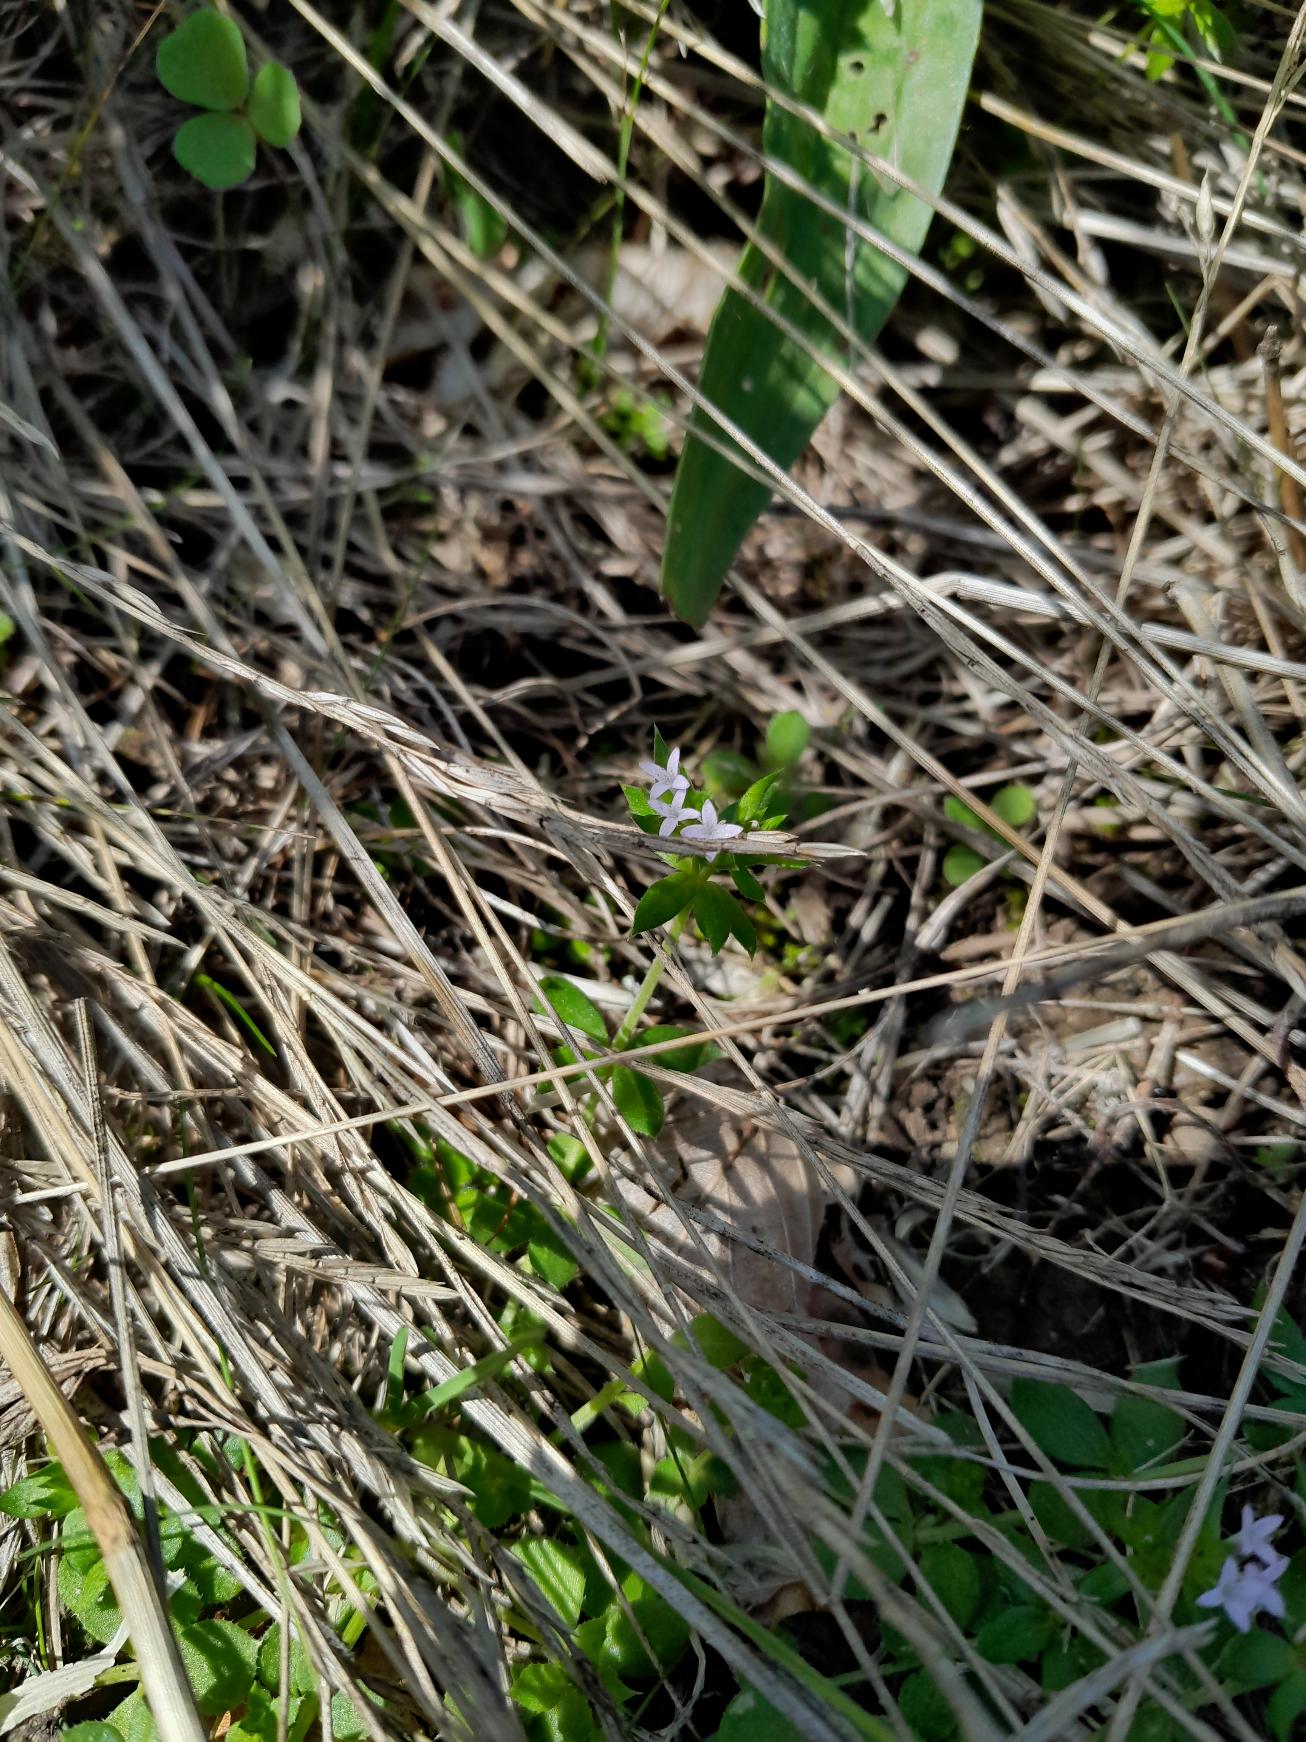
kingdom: Plantae
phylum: Tracheophyta
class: Magnoliopsida
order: Gentianales
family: Rubiaceae
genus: Sherardia
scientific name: Sherardia arvensis
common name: Blåstjerne
